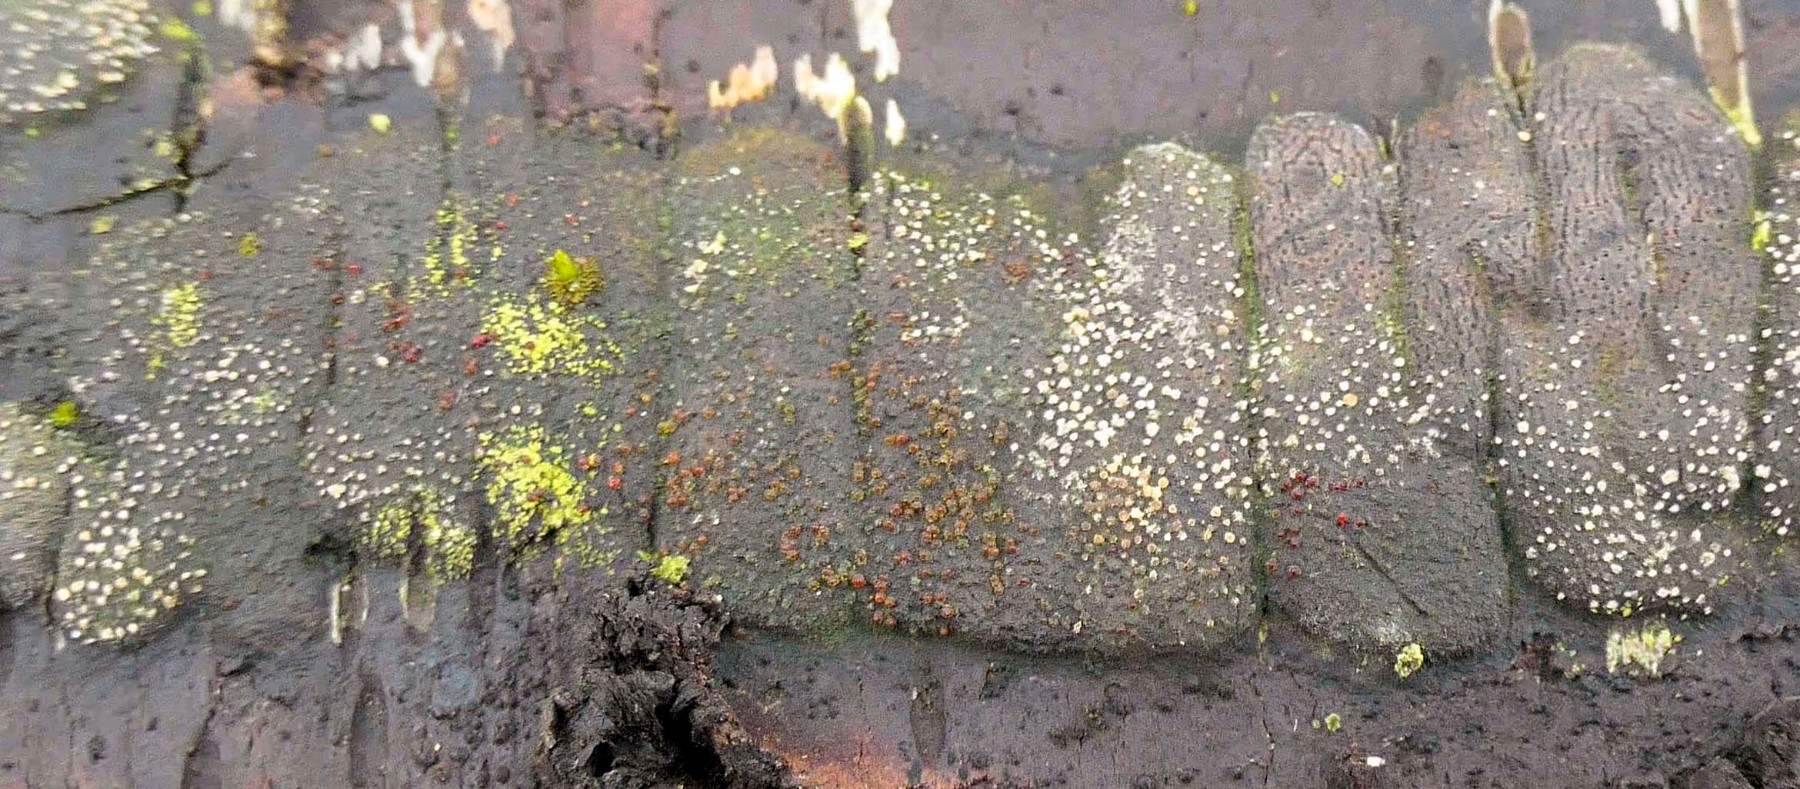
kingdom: Fungi
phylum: Ascomycota
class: Sordariomycetes
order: Hypocreales
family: Nectriaceae
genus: Dialonectria
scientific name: Dialonectria episphaeria
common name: kulskorpe-cinnobersvamp
